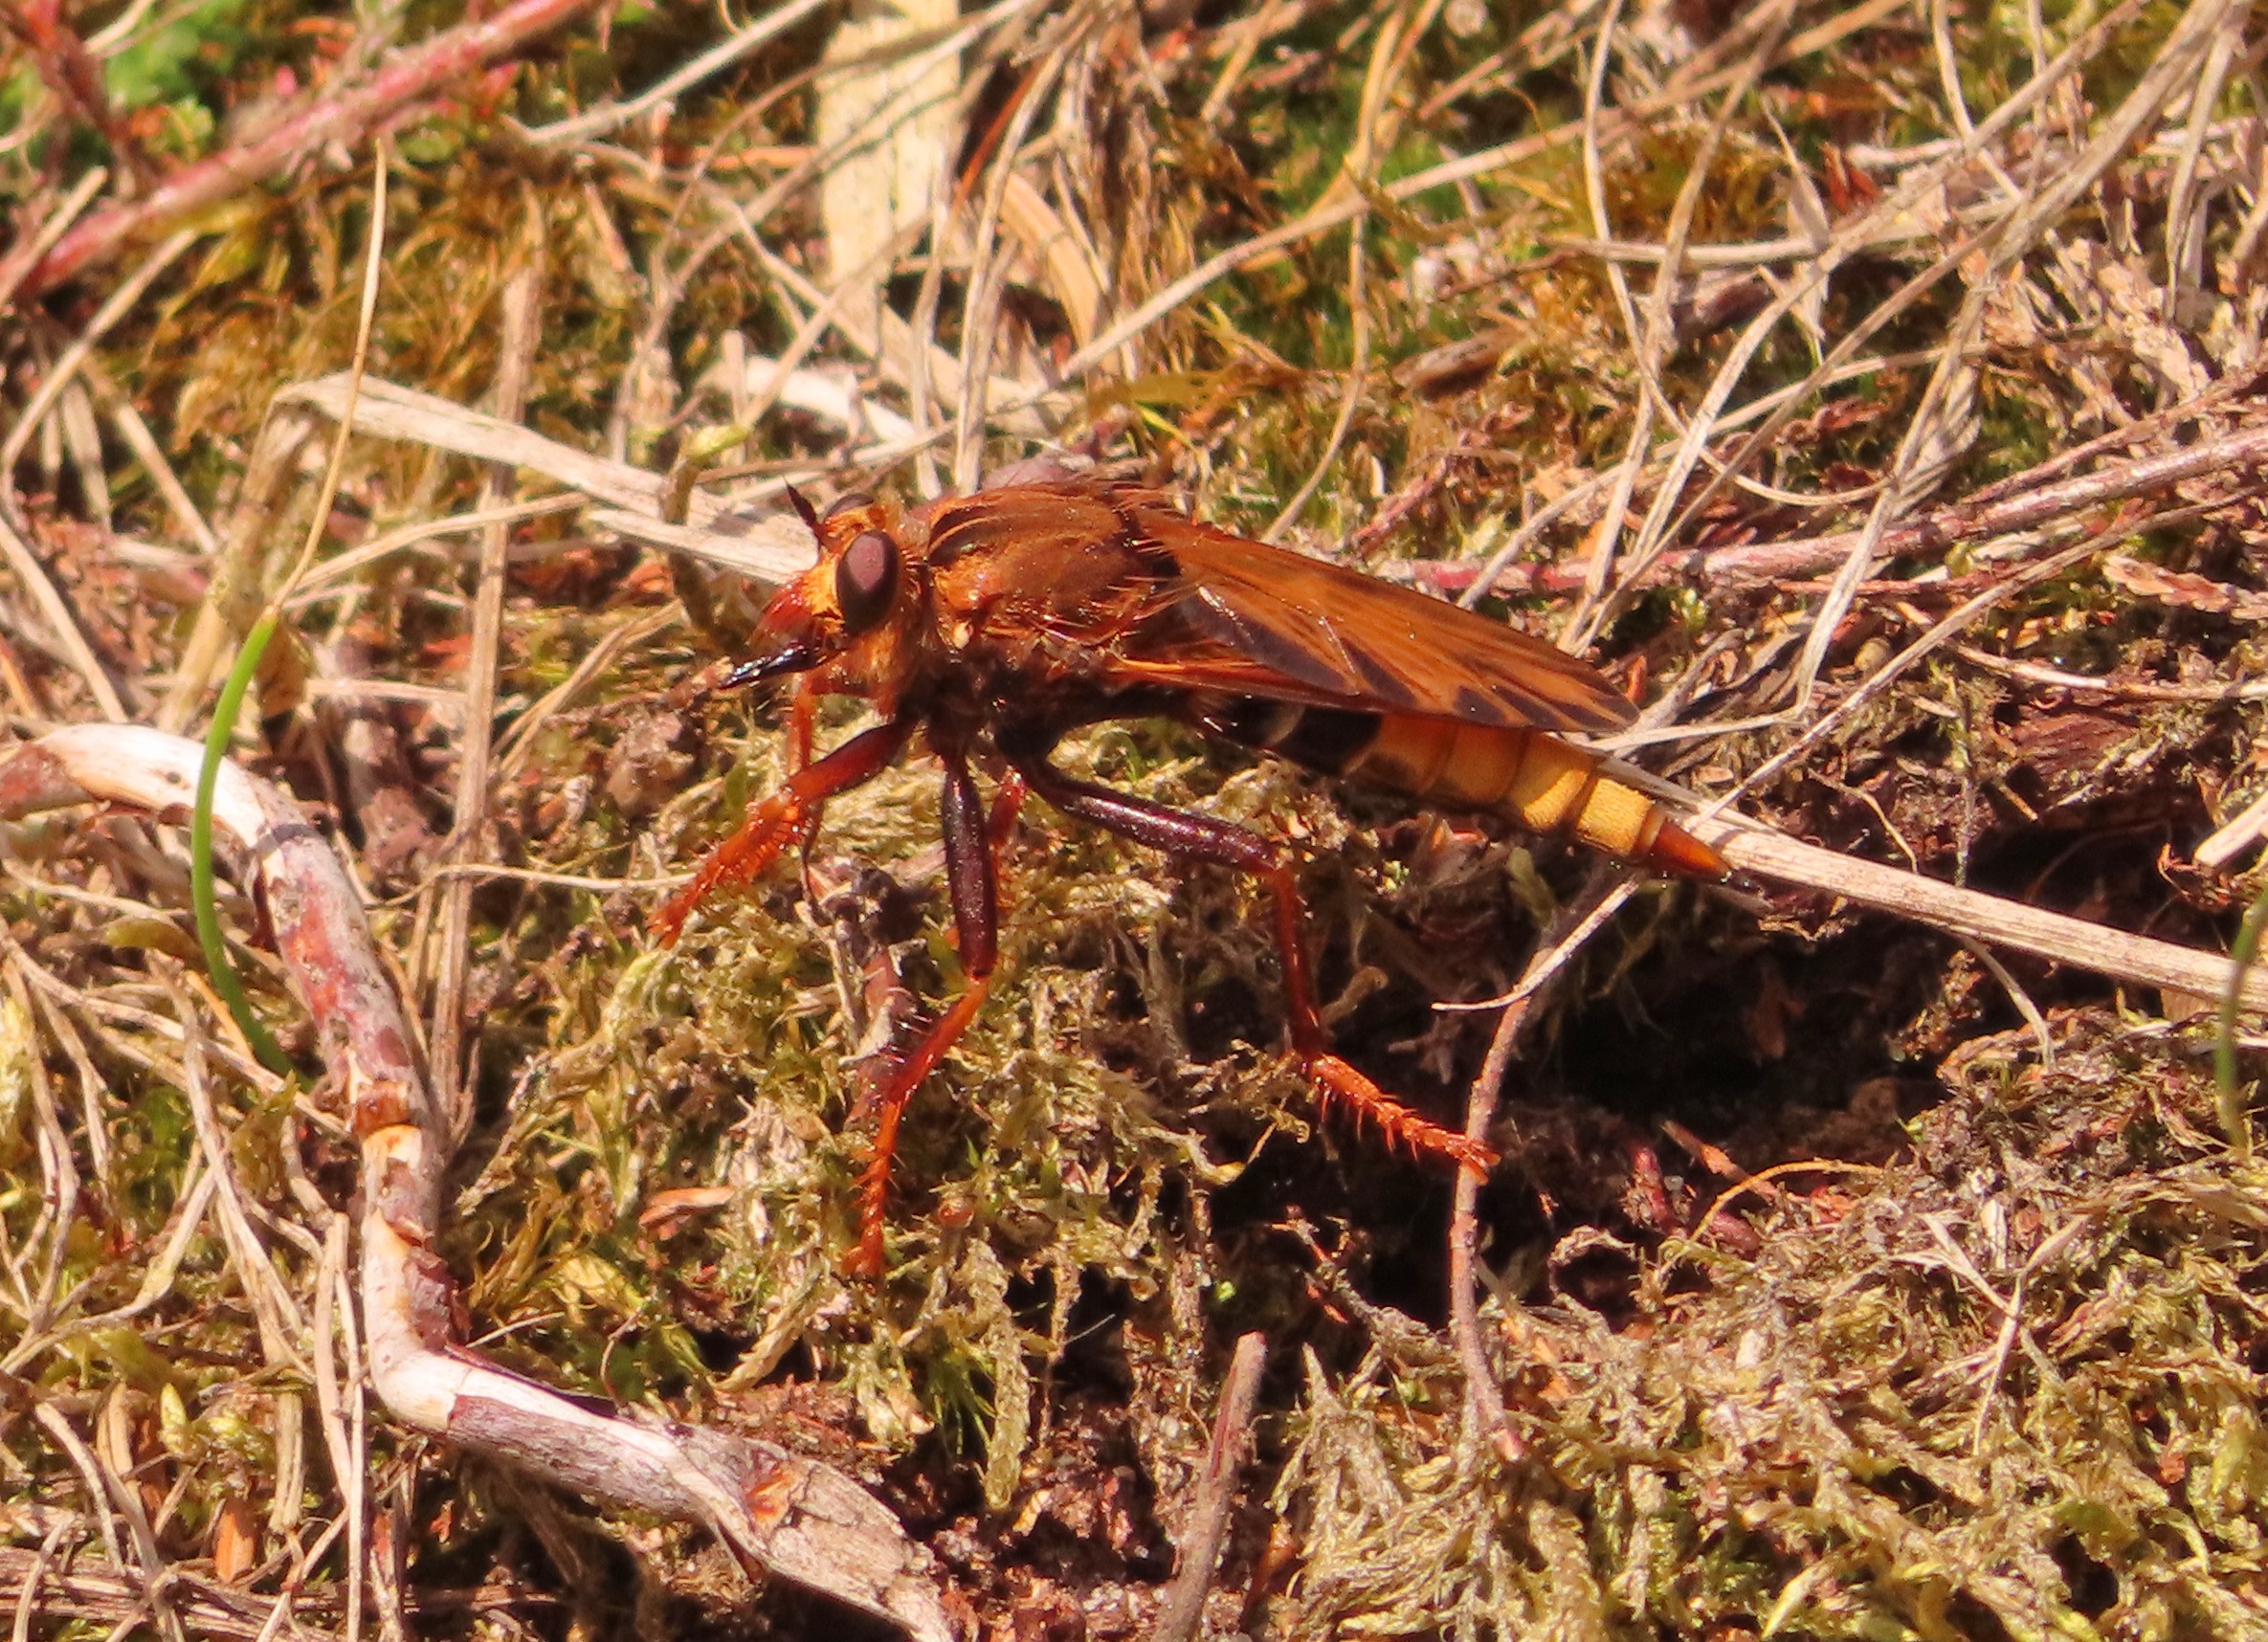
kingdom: Animalia
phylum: Arthropoda
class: Insecta
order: Diptera
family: Asilidae
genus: Asilus
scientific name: Asilus crabroniformis
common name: Stor gødningsrovflue
